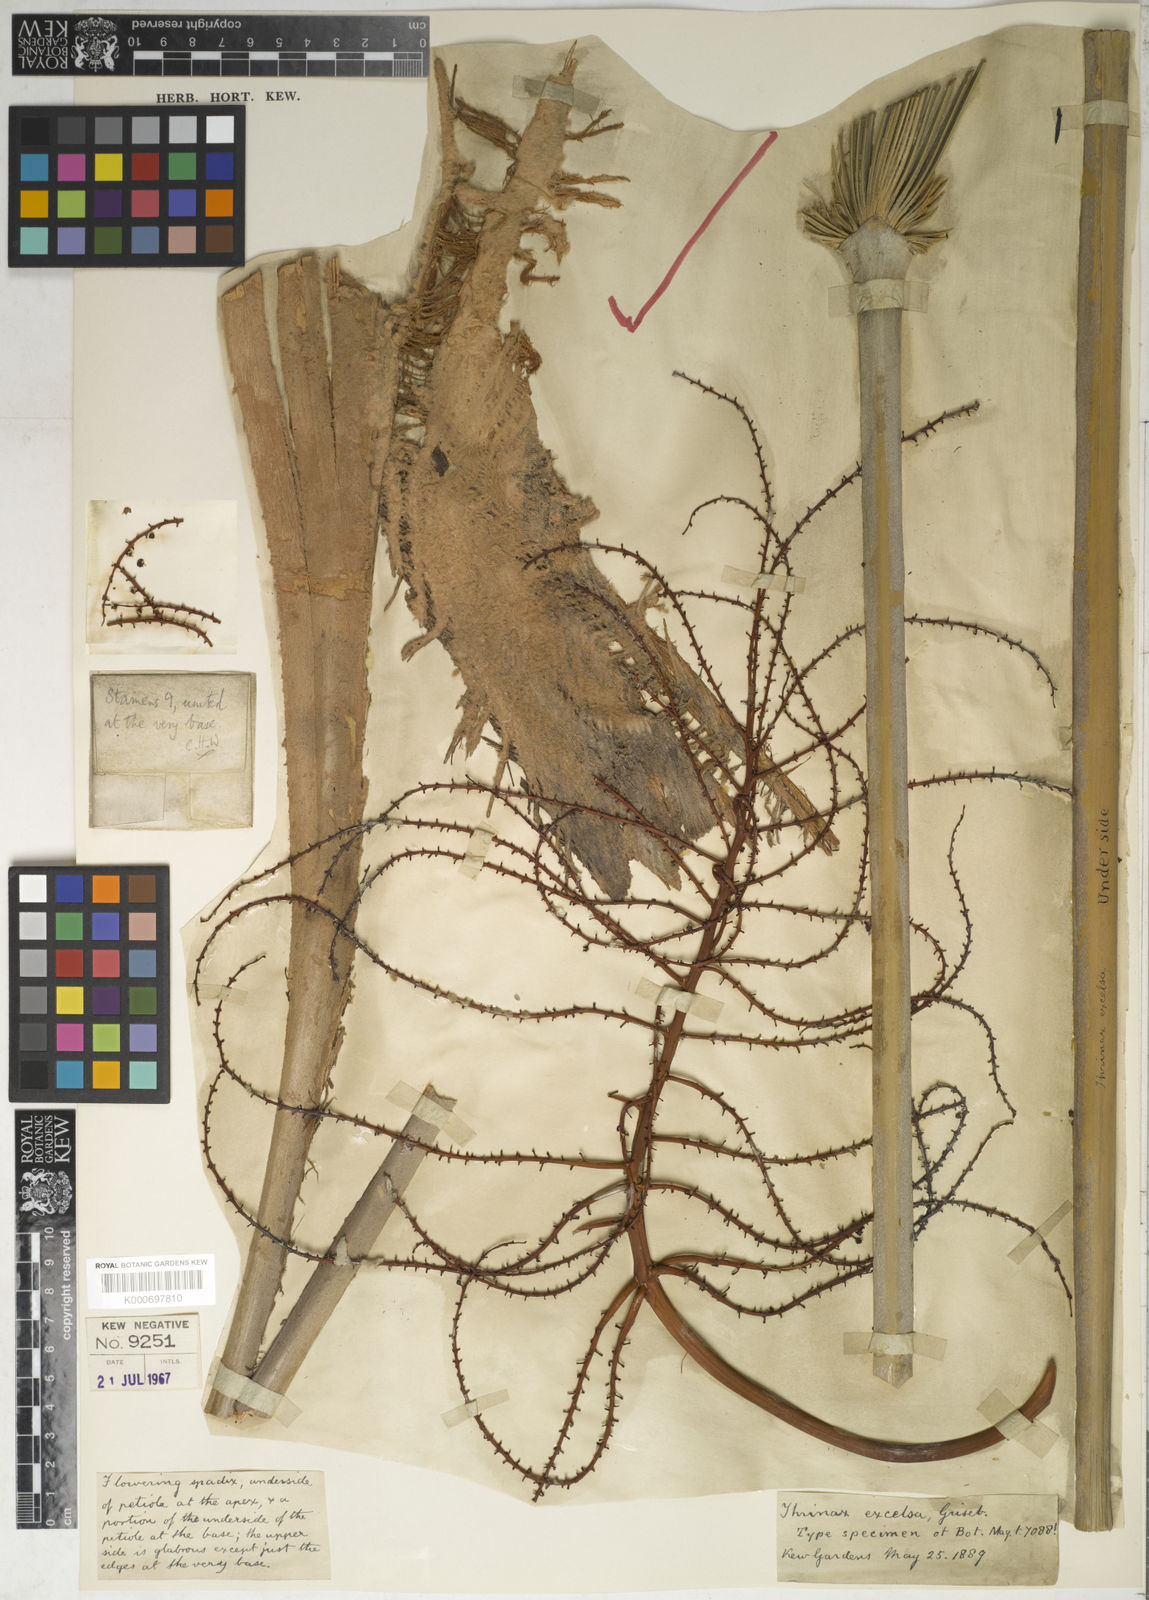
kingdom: Plantae
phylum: Tracheophyta
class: Liliopsida
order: Arecales
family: Arecaceae
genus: Thrinax
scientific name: Thrinax
